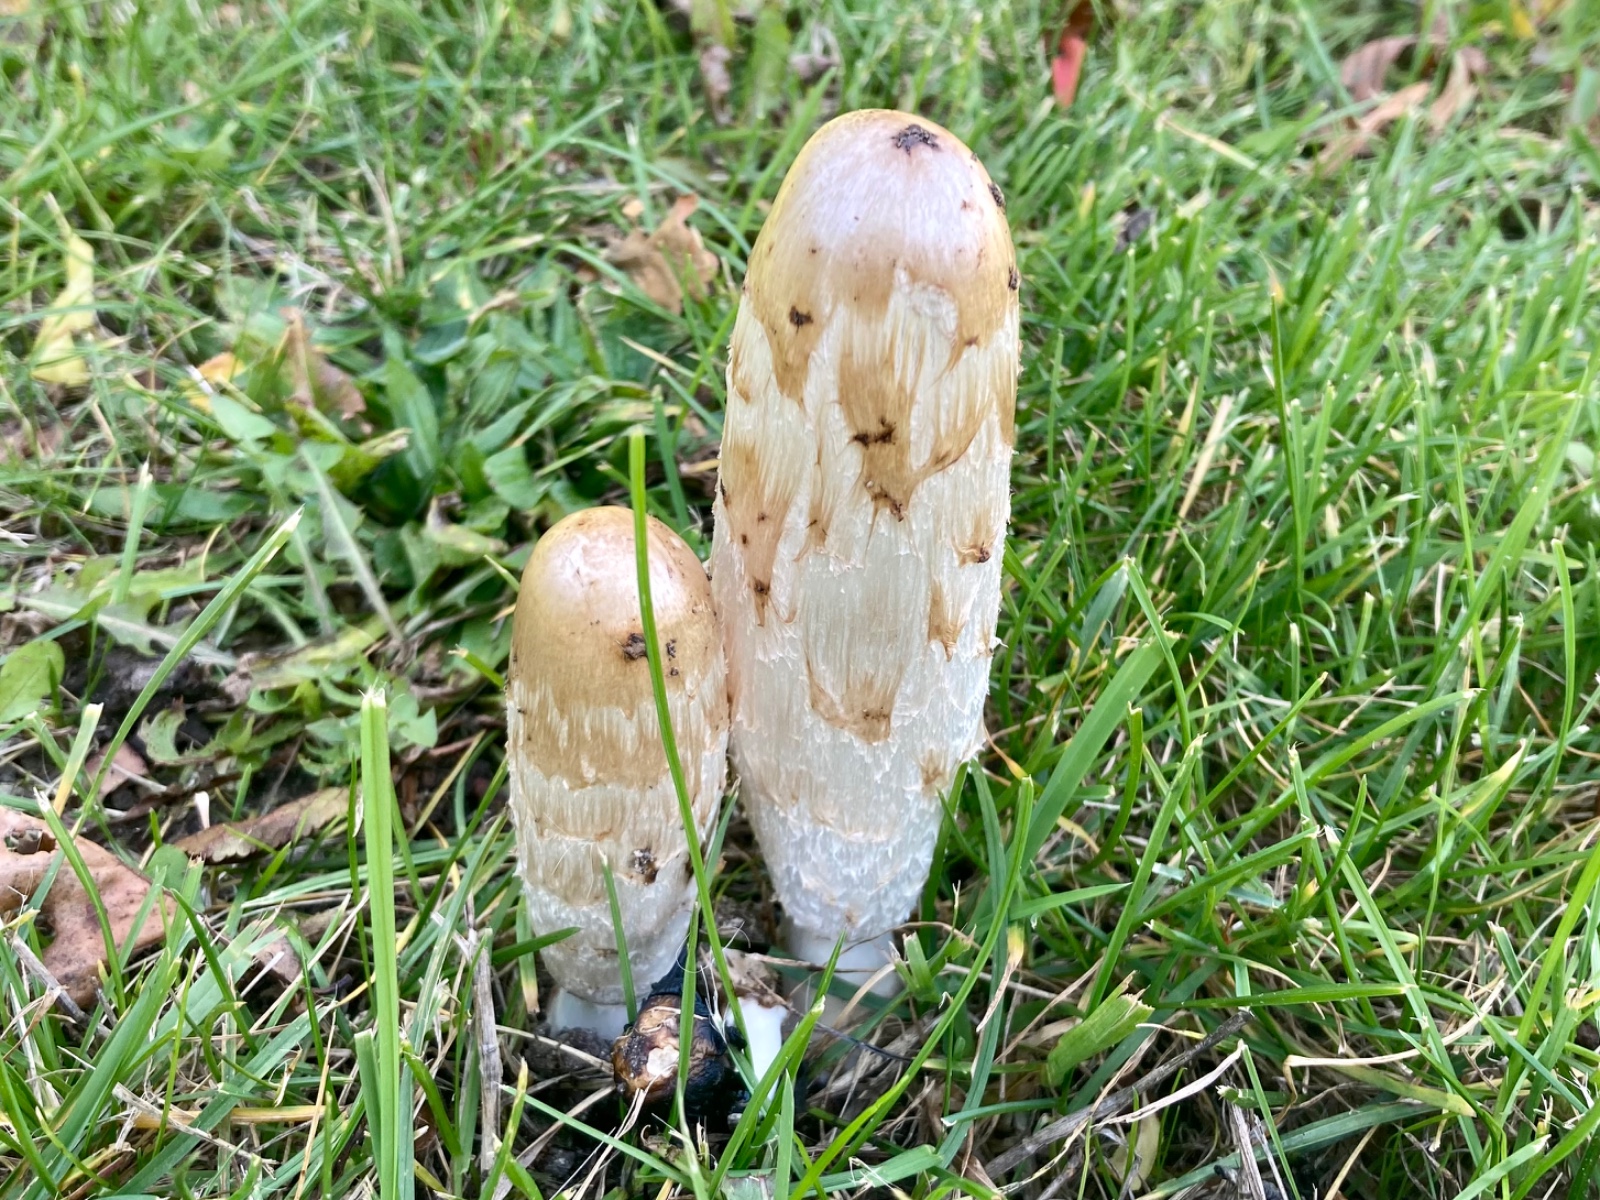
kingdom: Fungi
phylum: Basidiomycota
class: Agaricomycetes
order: Agaricales
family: Agaricaceae
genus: Coprinus
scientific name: Coprinus comatus
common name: stor parykhat
